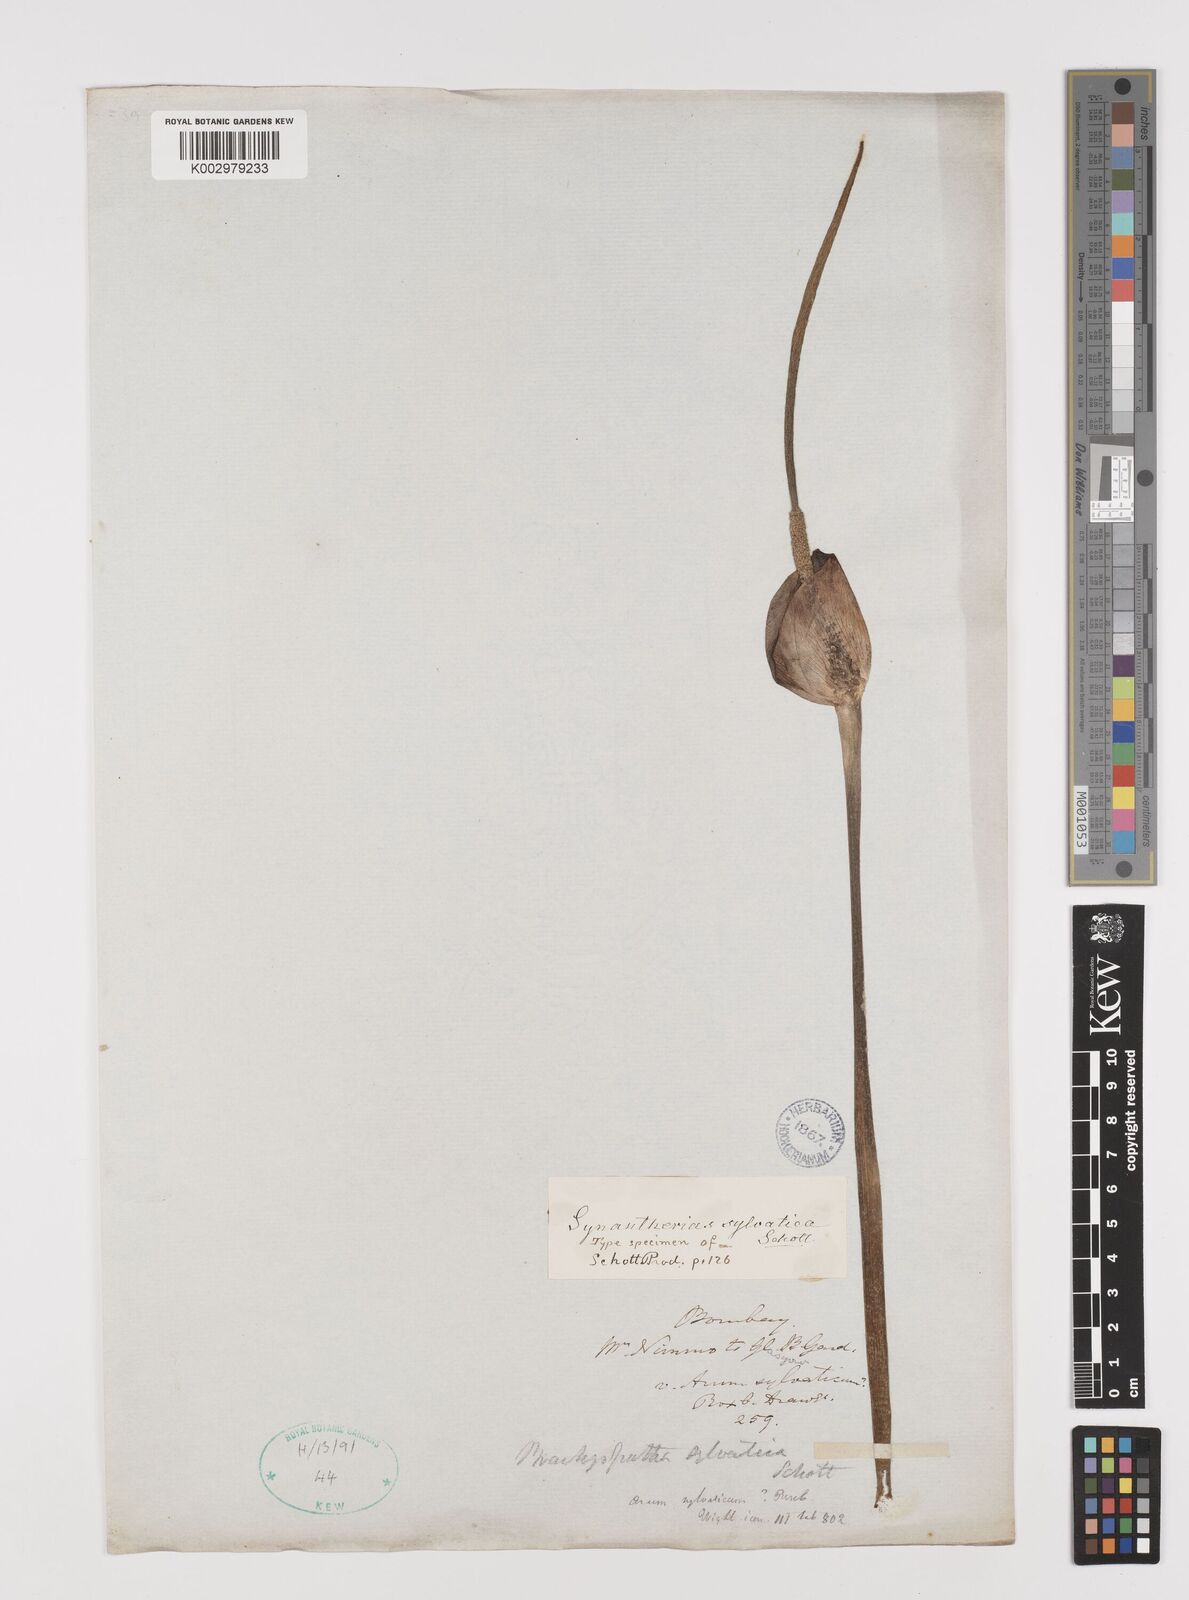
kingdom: Plantae
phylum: Tracheophyta
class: Liliopsida
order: Alismatales
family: Araceae
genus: Amorphophallus
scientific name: Amorphophallus sylvaticus
